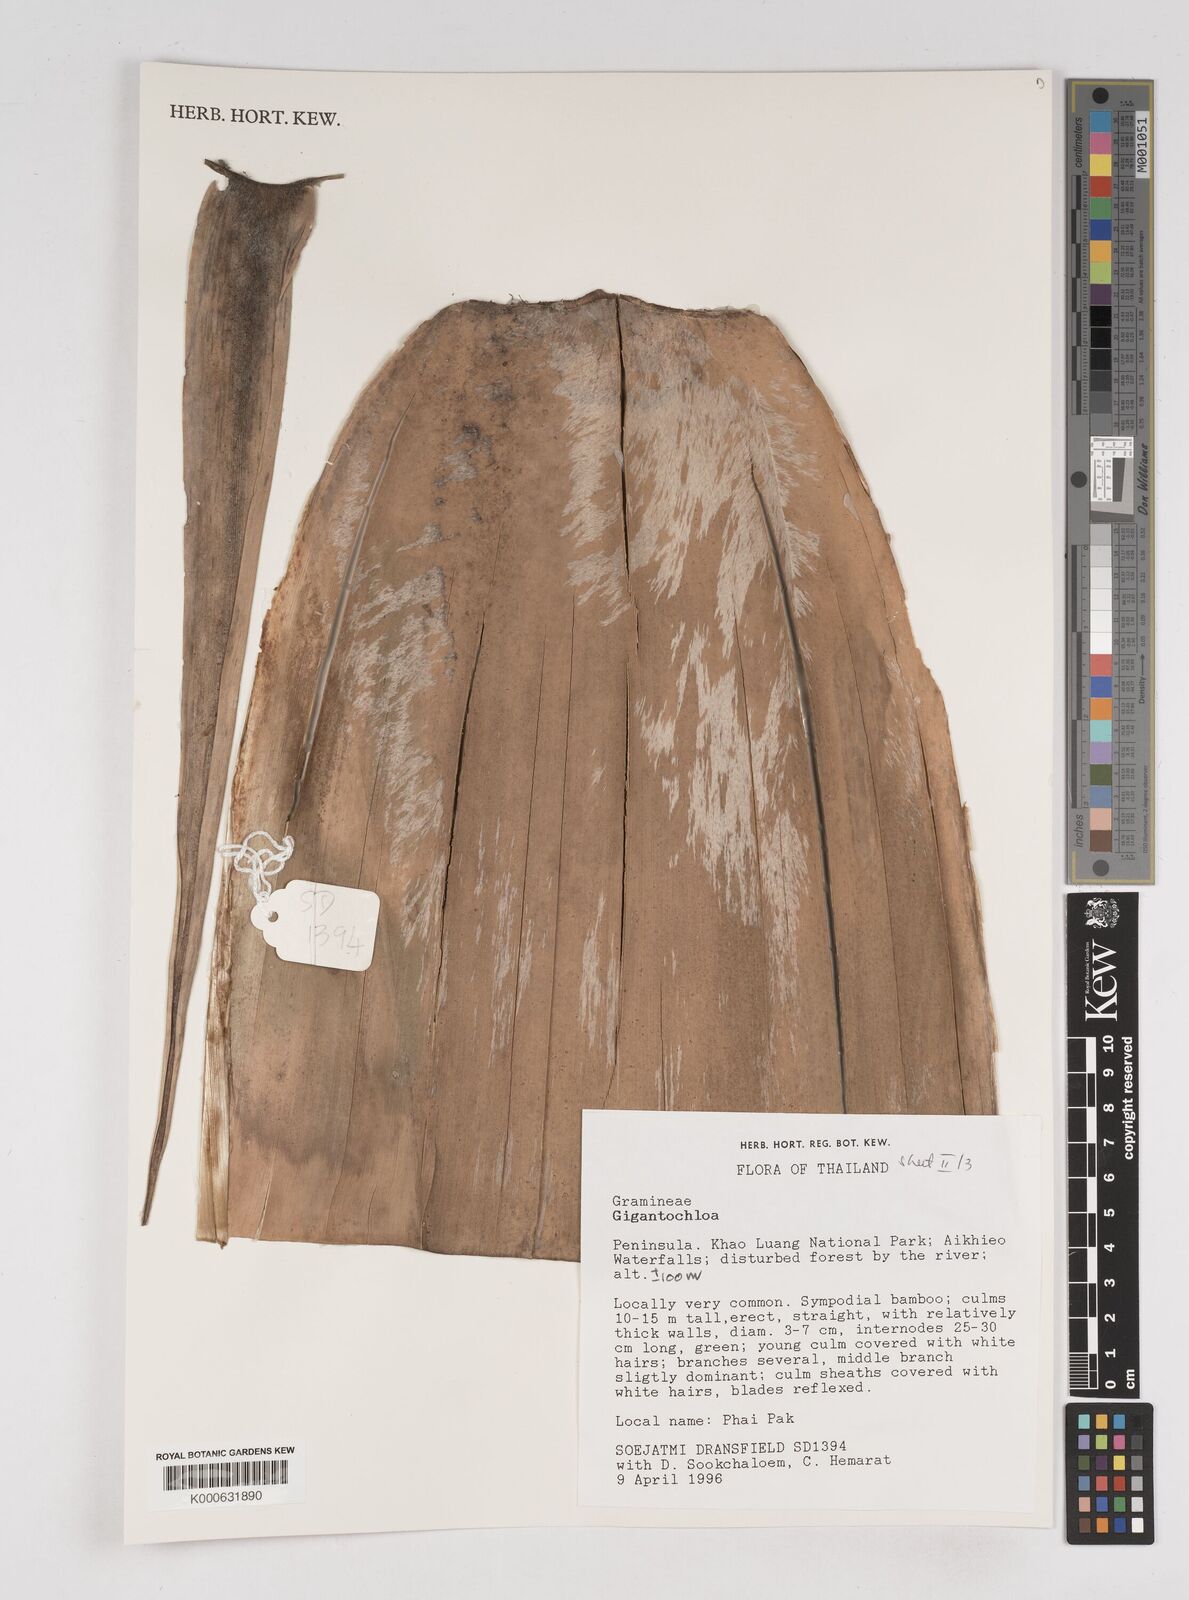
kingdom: Plantae
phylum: Tracheophyta
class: Liliopsida
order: Poales
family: Poaceae
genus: Gigantochloa
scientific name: Gigantochloa
